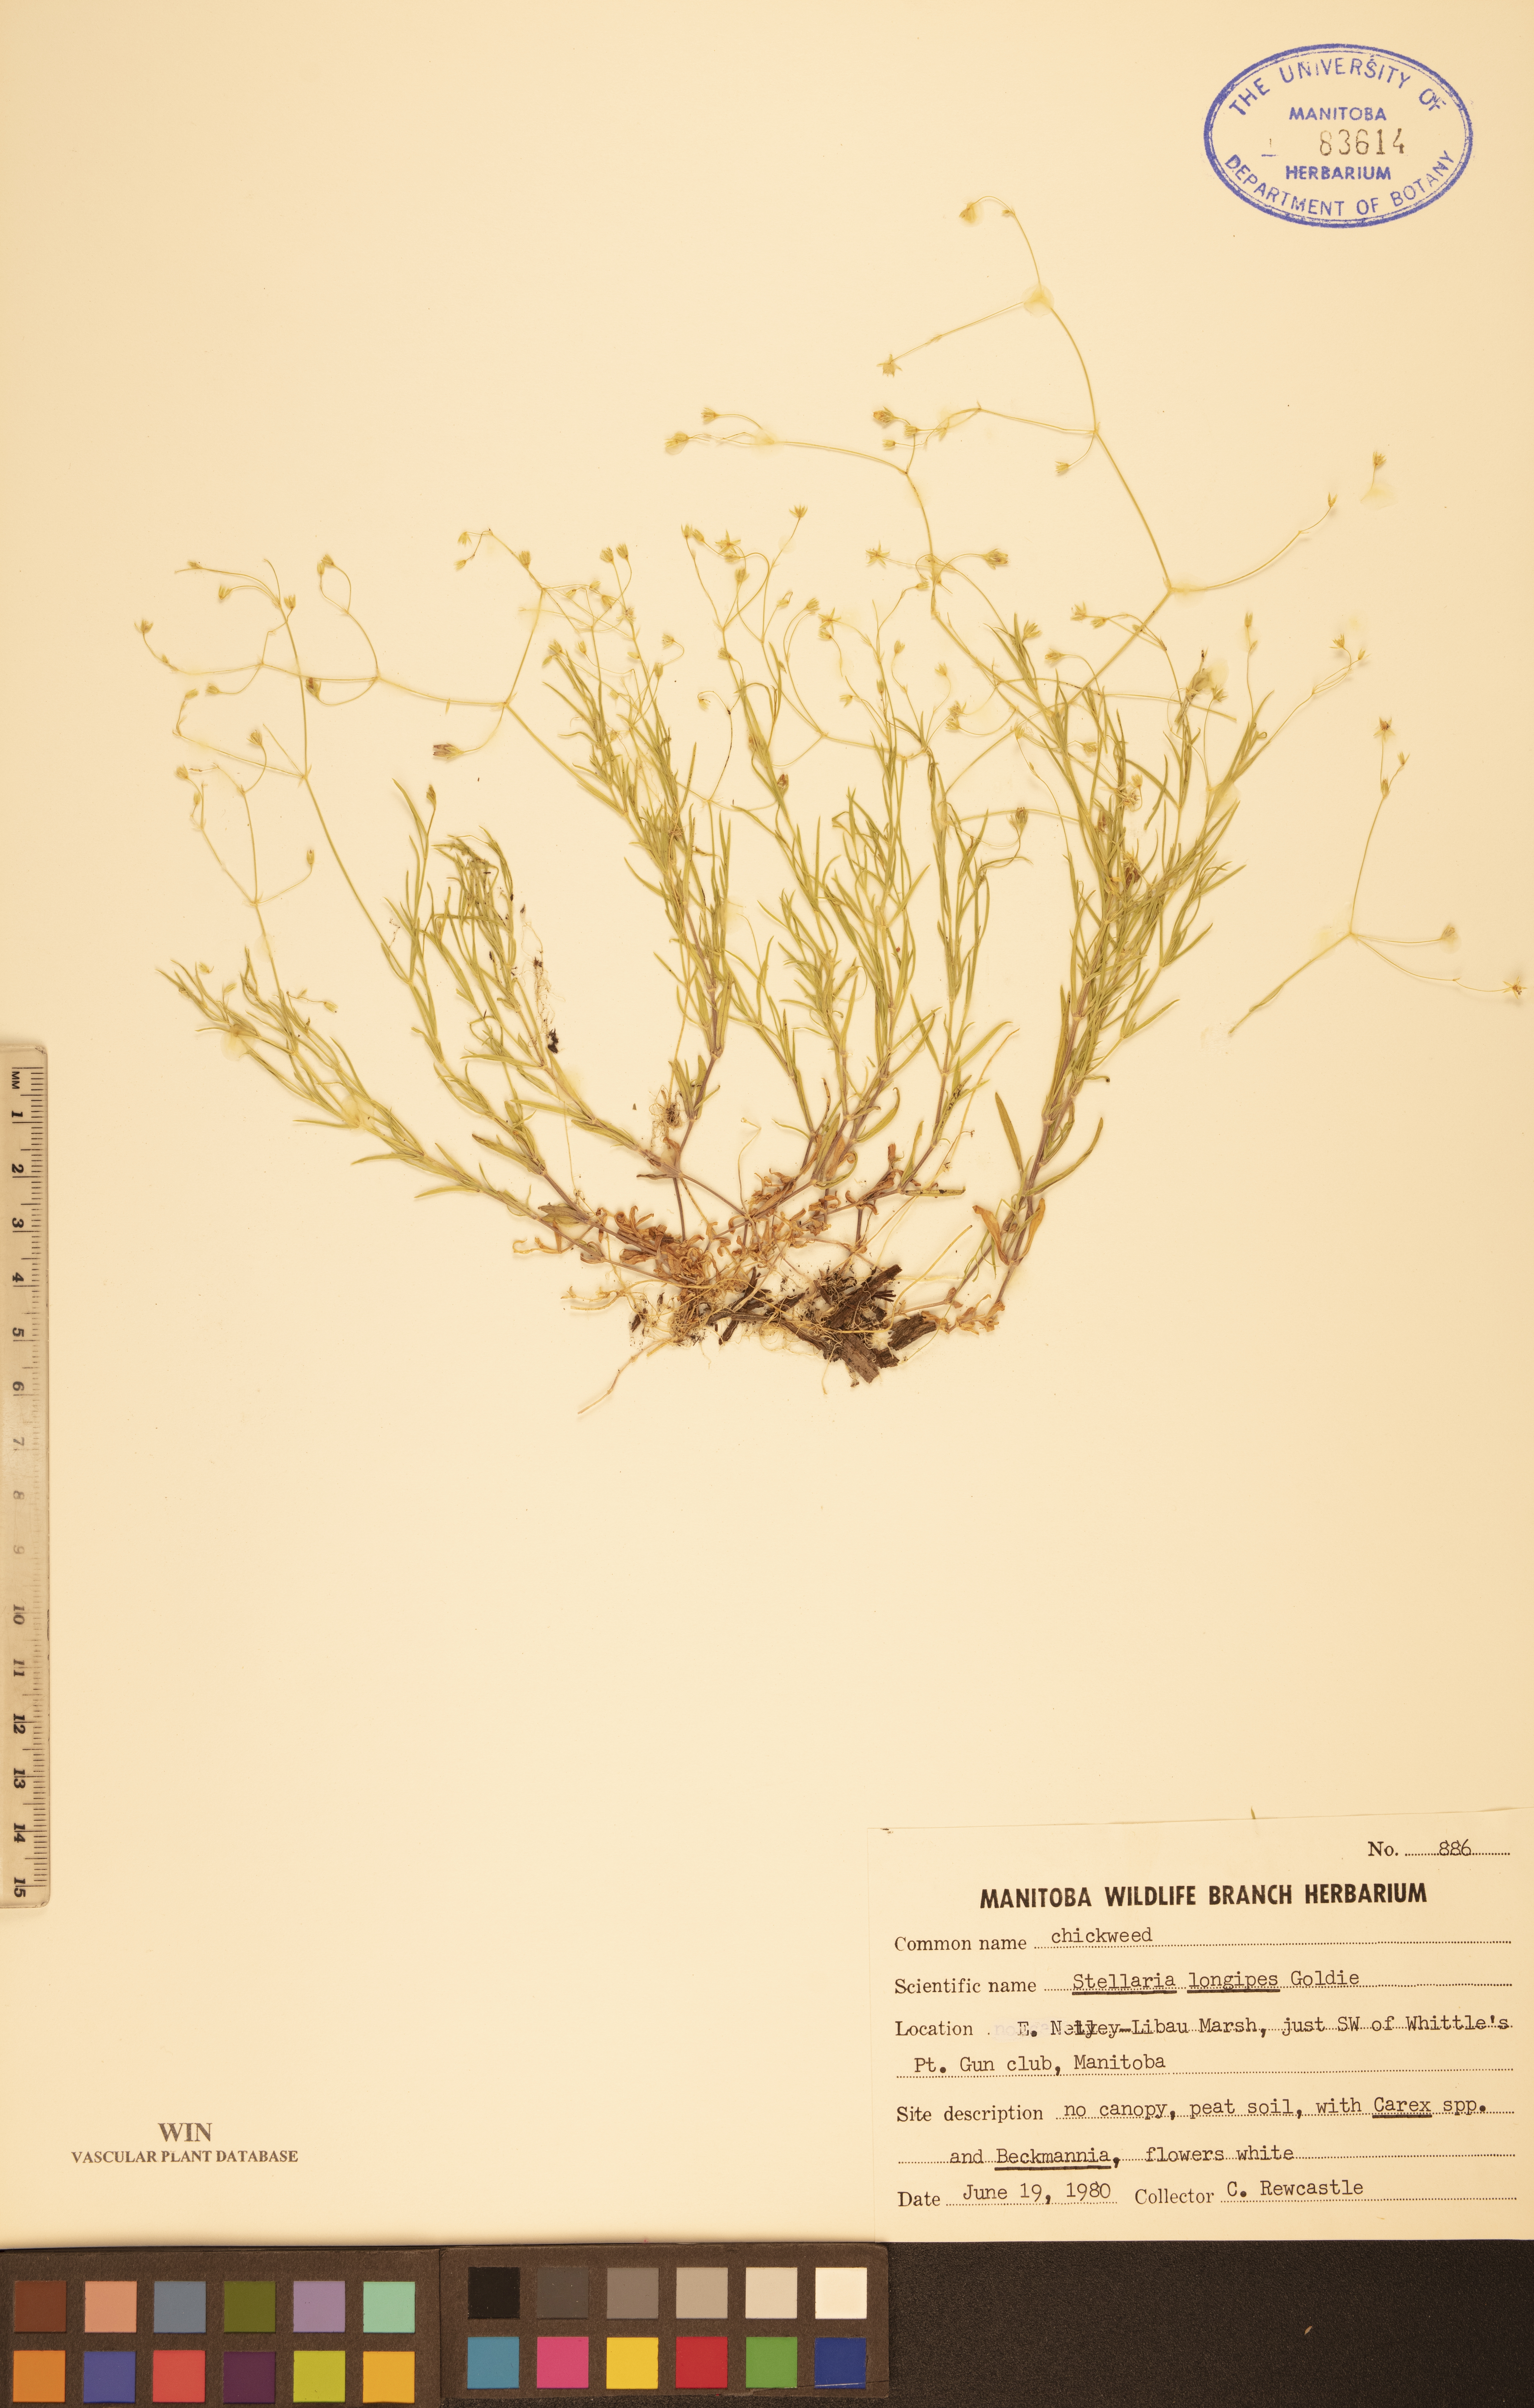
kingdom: Plantae
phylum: Tracheophyta
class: Magnoliopsida
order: Caryophyllales
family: Caryophyllaceae
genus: Stellaria
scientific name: Stellaria longipes
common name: Goldie's starwort
